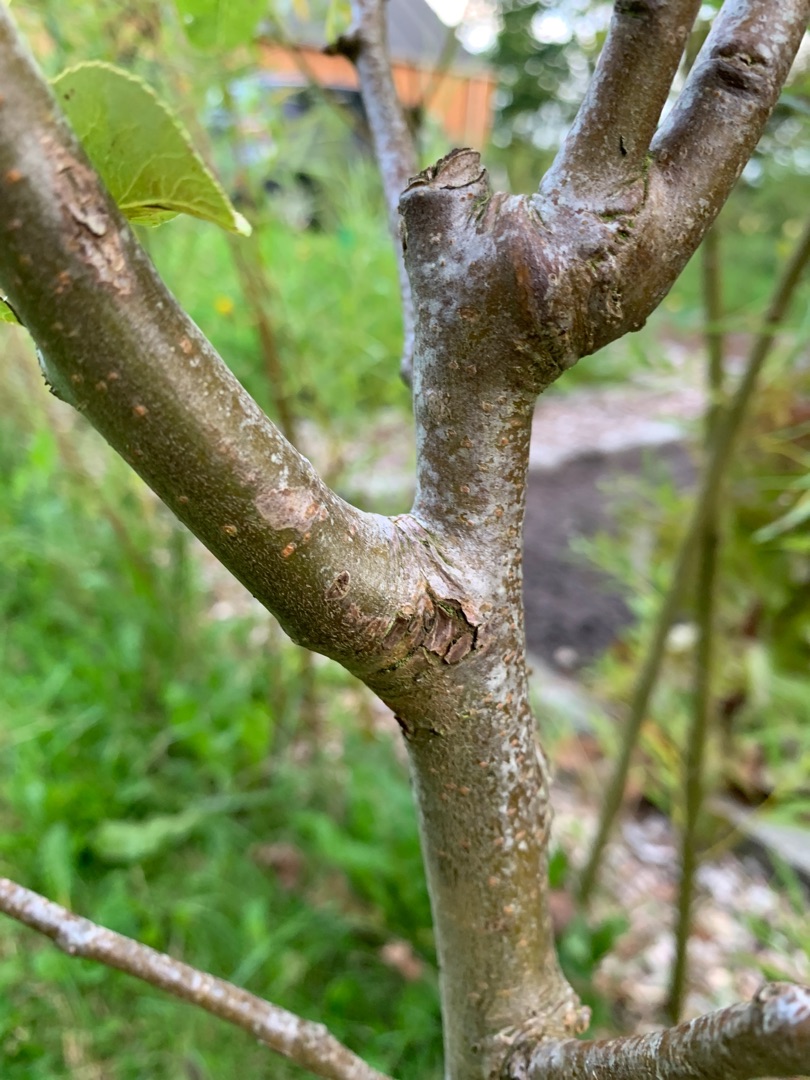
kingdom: Plantae
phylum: Tracheophyta
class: Magnoliopsida
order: Rosales
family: Rosaceae
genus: Pyrus
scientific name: Pyrus communis
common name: Pære
